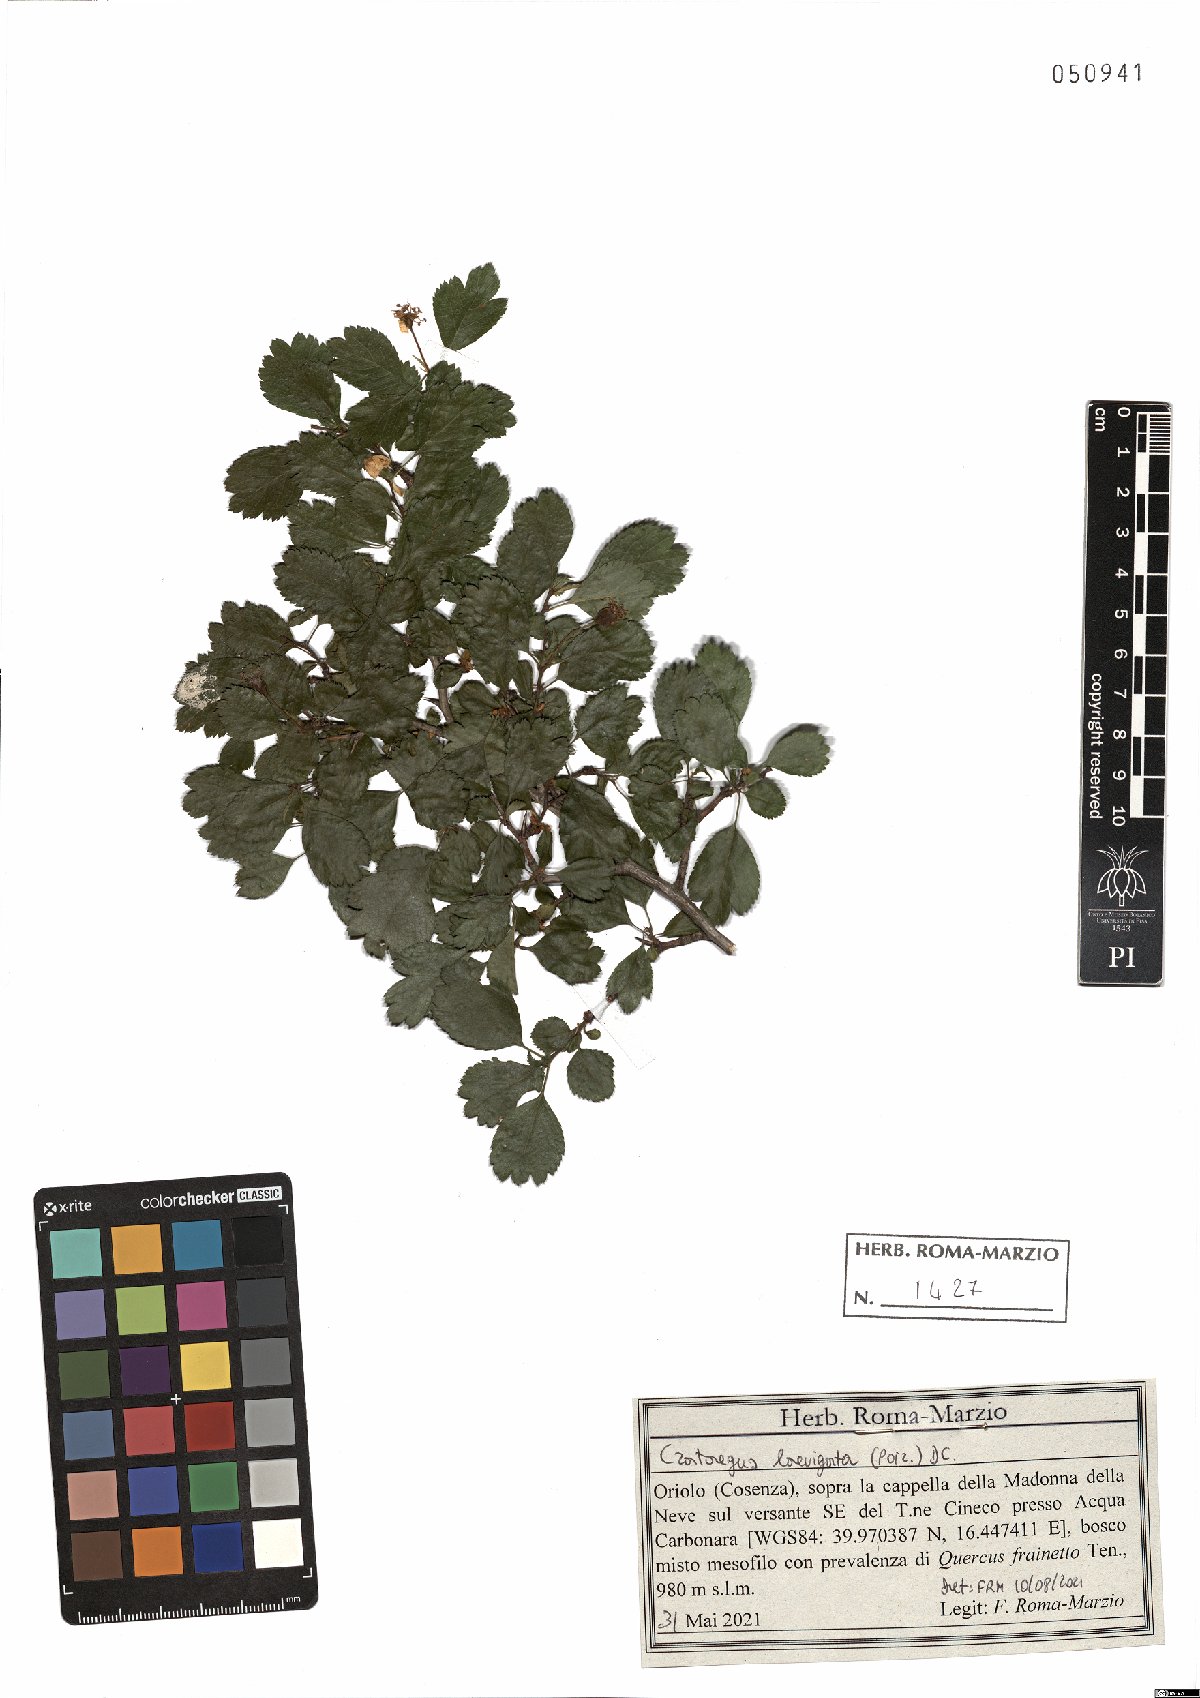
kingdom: Plantae
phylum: Tracheophyta
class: Magnoliopsida
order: Rosales
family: Rosaceae
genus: Crataegus
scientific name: Crataegus laevigata
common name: Midland hawthorn
